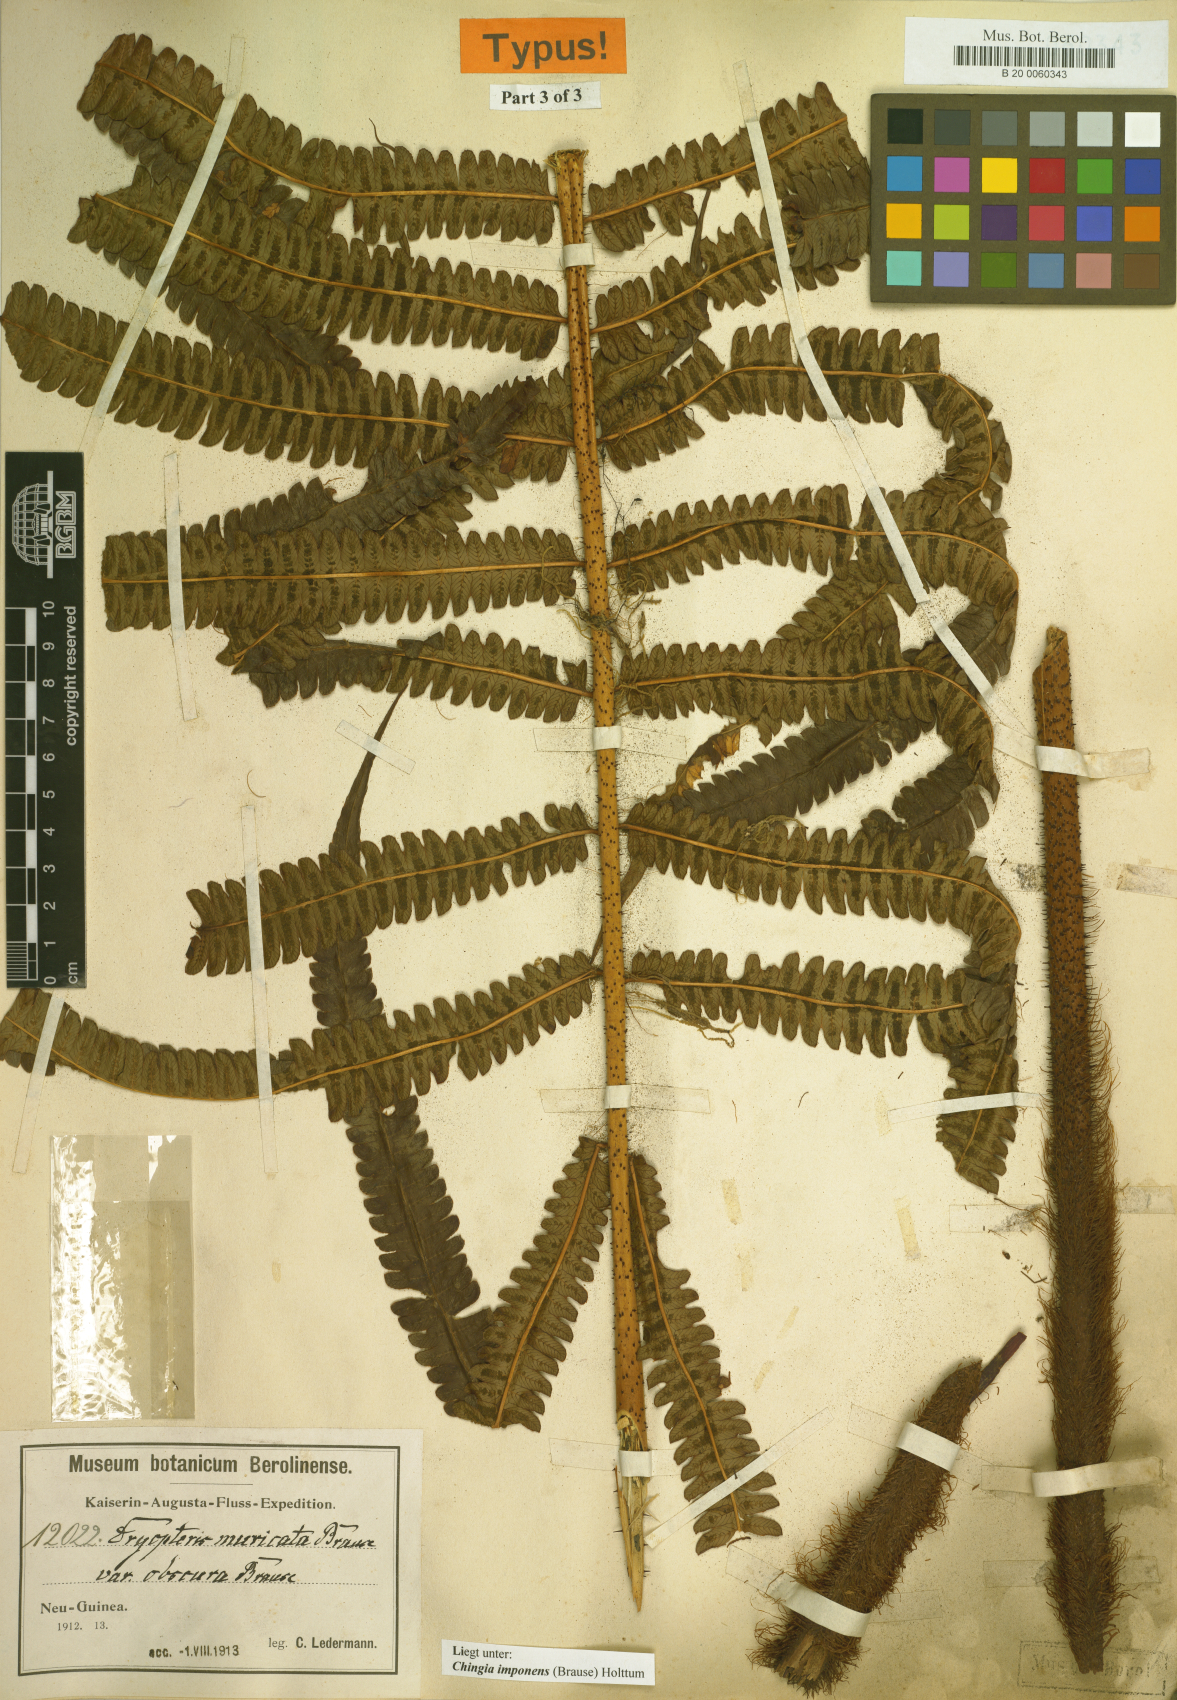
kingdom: Plantae
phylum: Tracheophyta
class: Polypodiopsida
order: Polypodiales
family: Thelypteridaceae
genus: Chingia
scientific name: Chingia imponens
